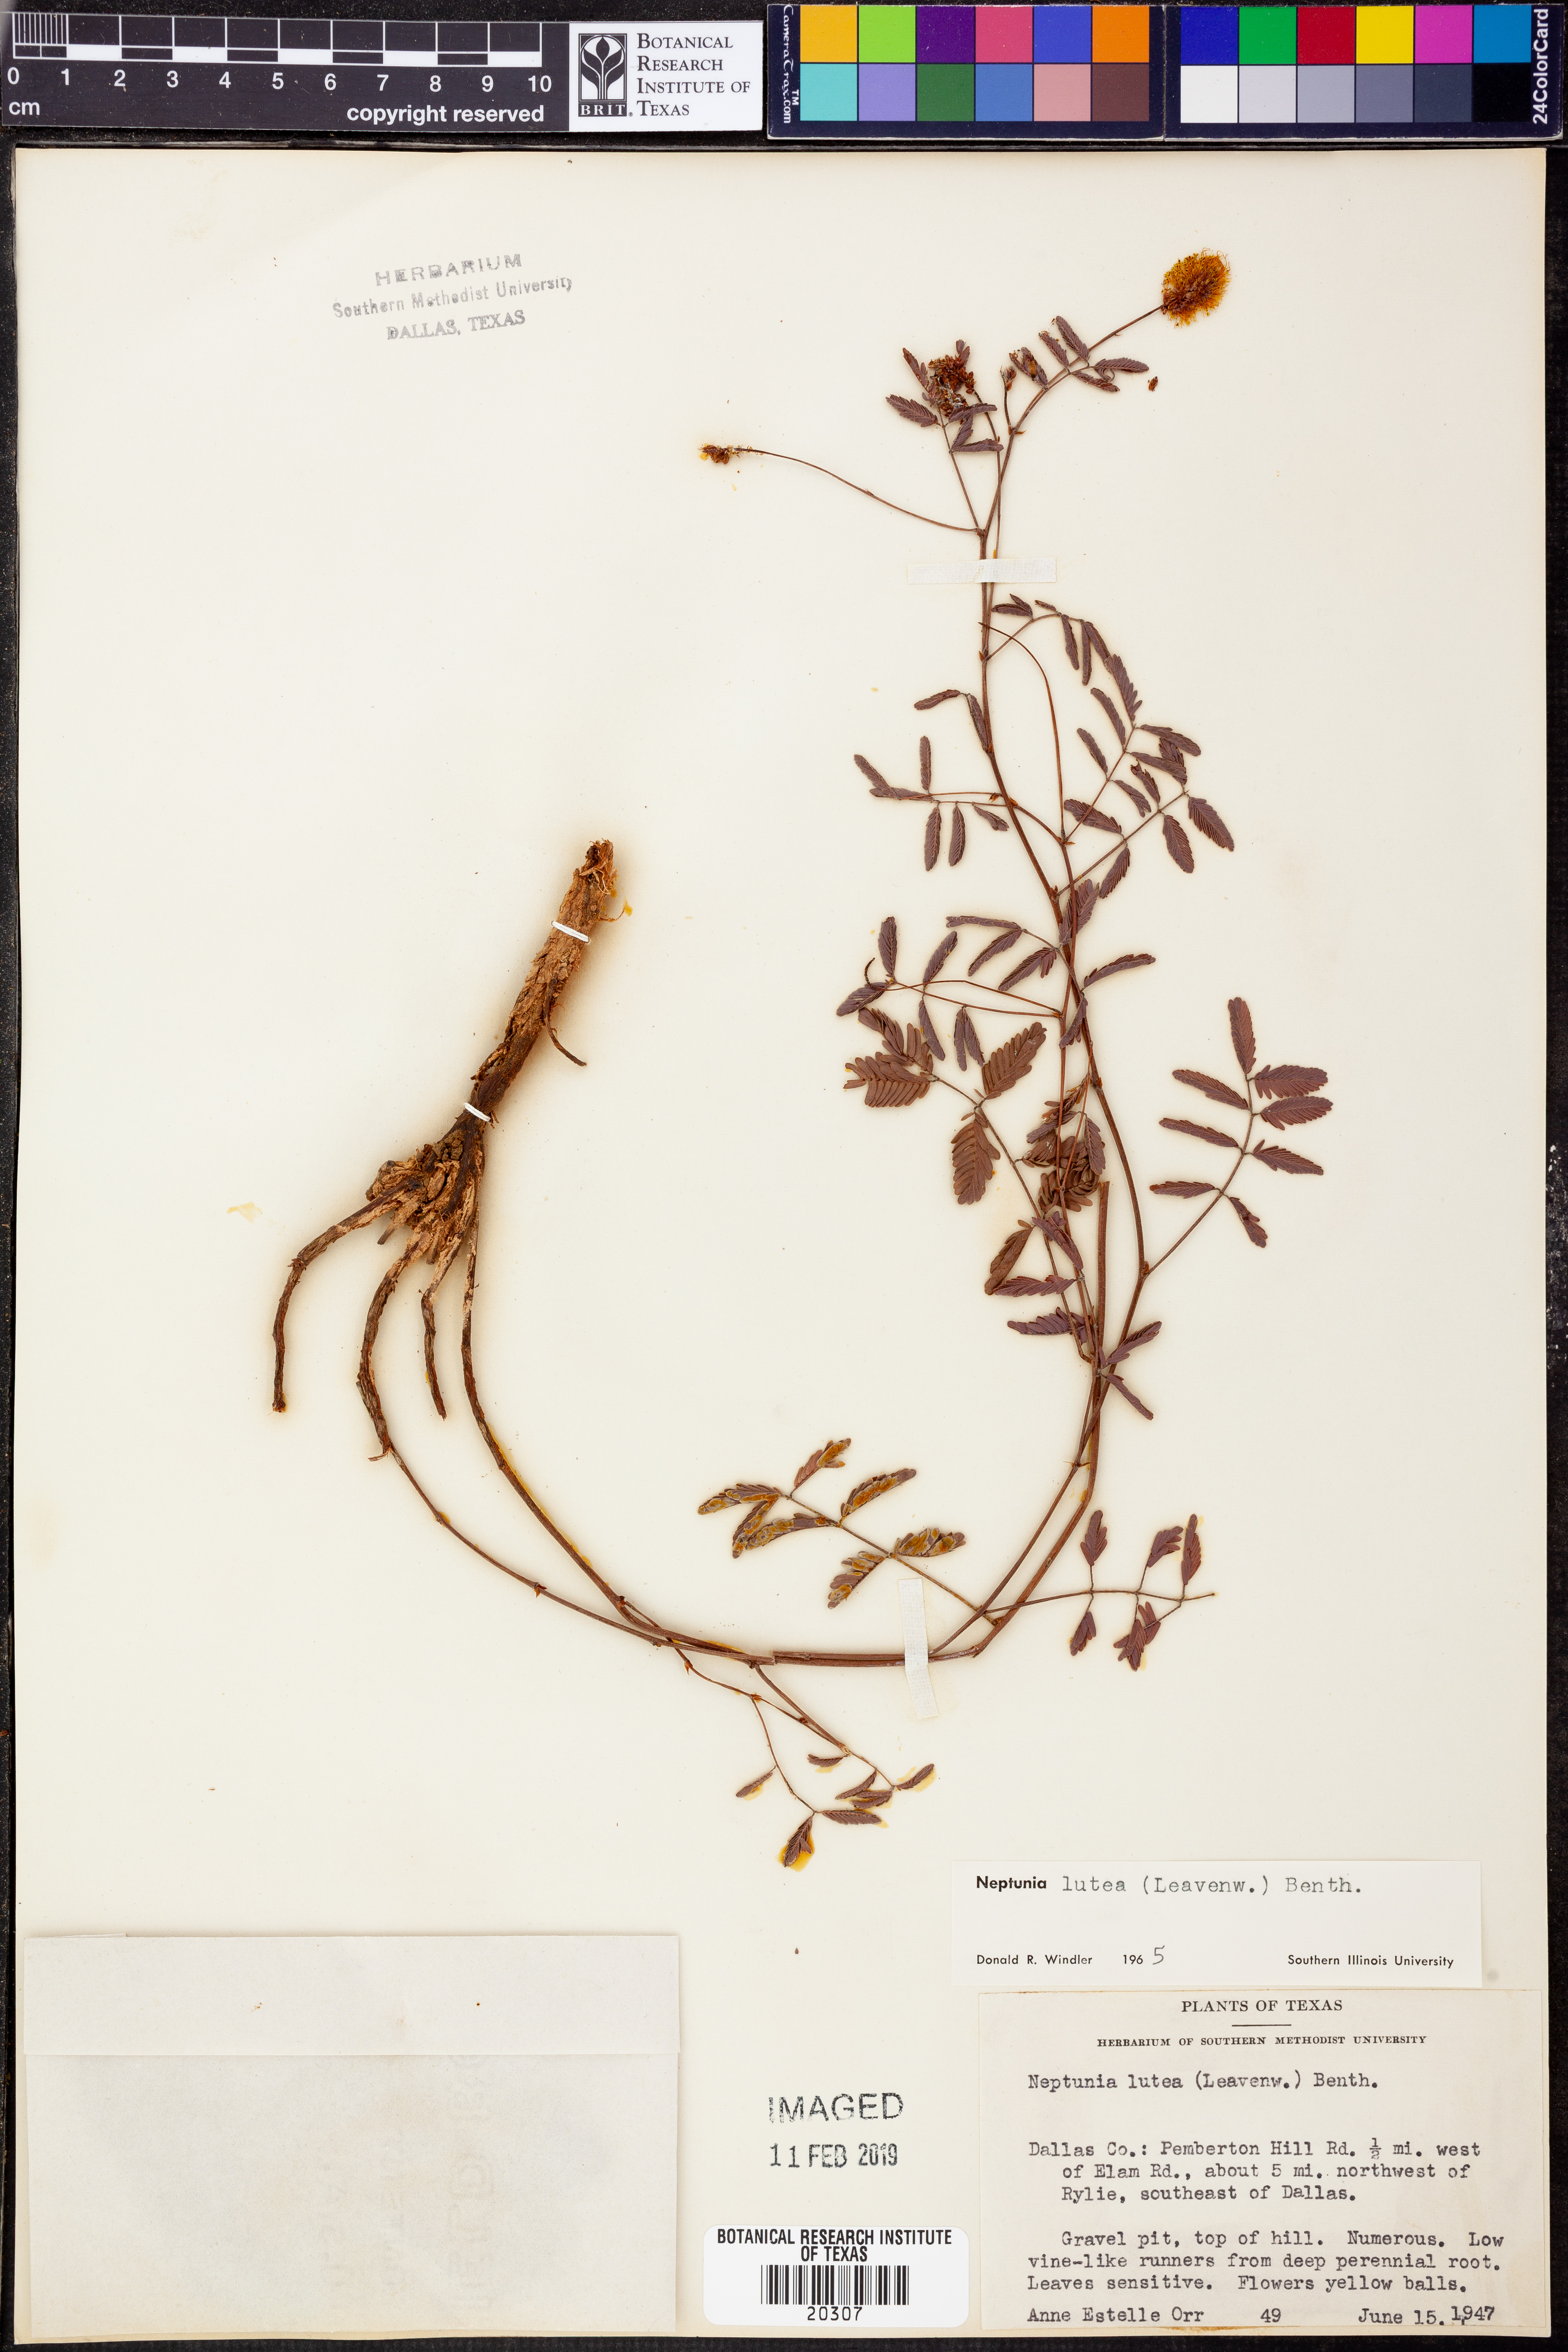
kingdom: Plantae
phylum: Tracheophyta
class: Magnoliopsida
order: Fabales
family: Fabaceae
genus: Neptunia
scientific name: Neptunia lutea
